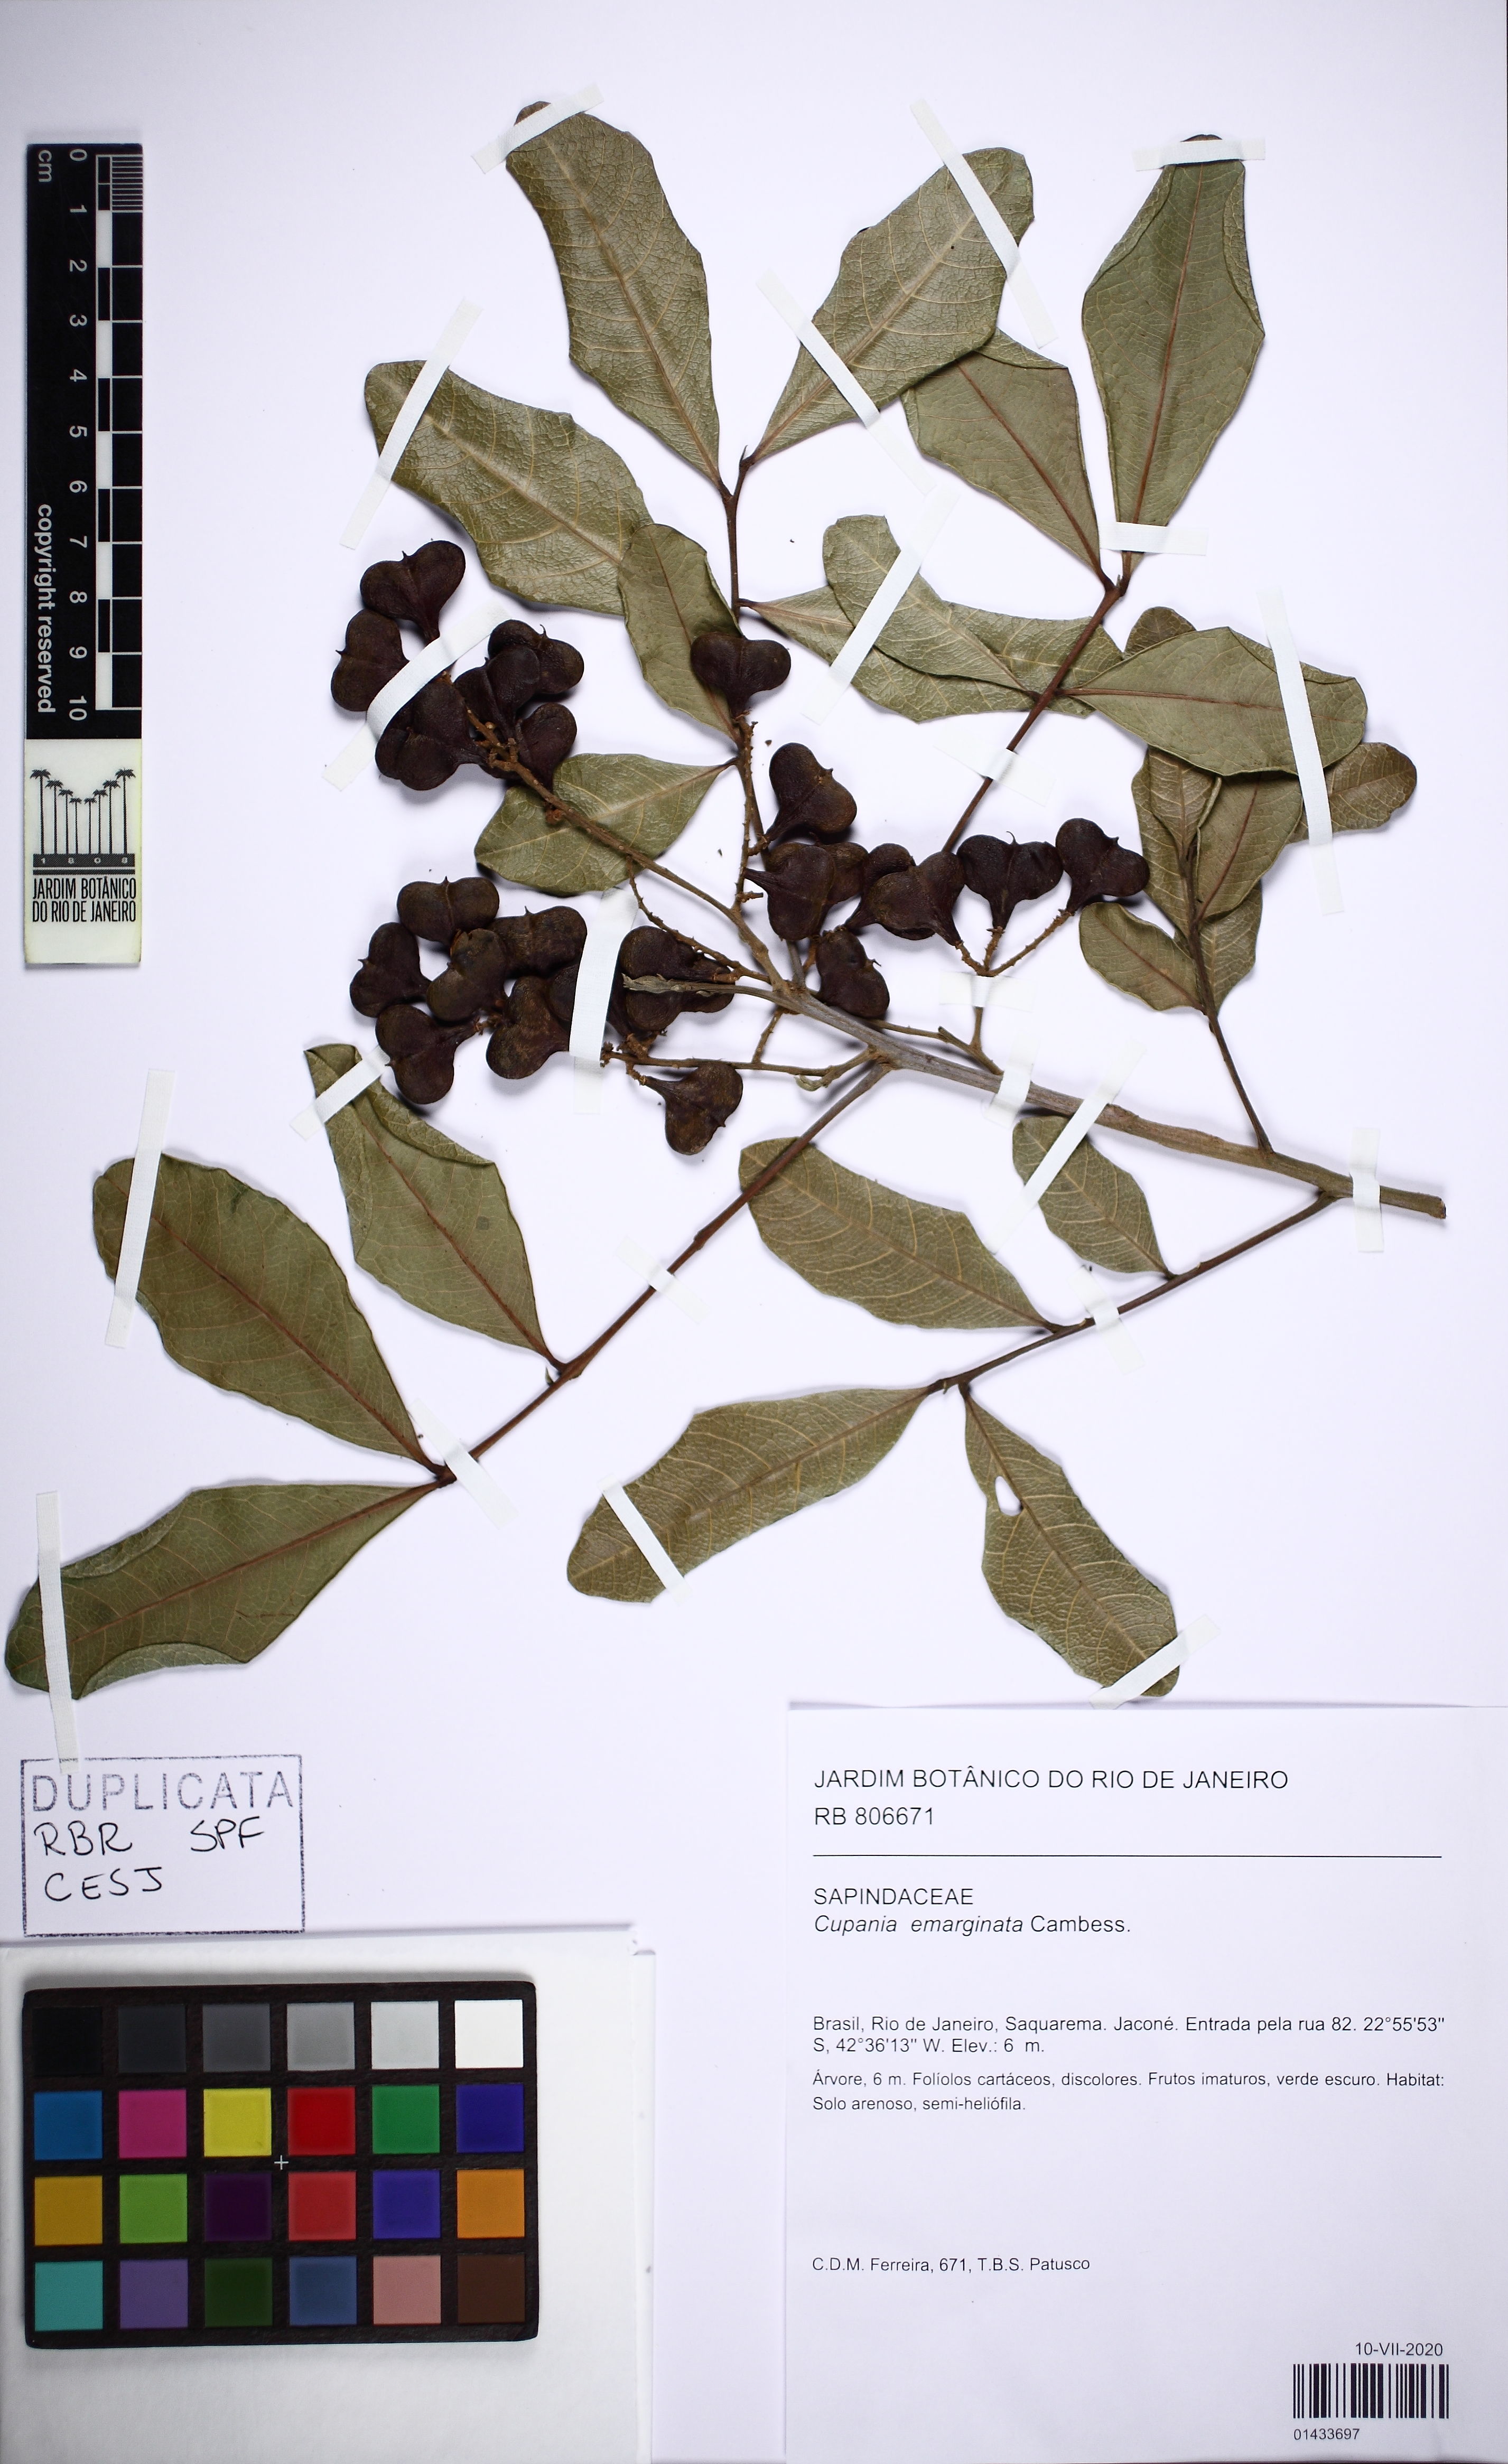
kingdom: Plantae
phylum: Tracheophyta
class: Magnoliopsida
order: Sapindales
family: Sapindaceae
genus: Cupania
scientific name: Cupania emarginata
